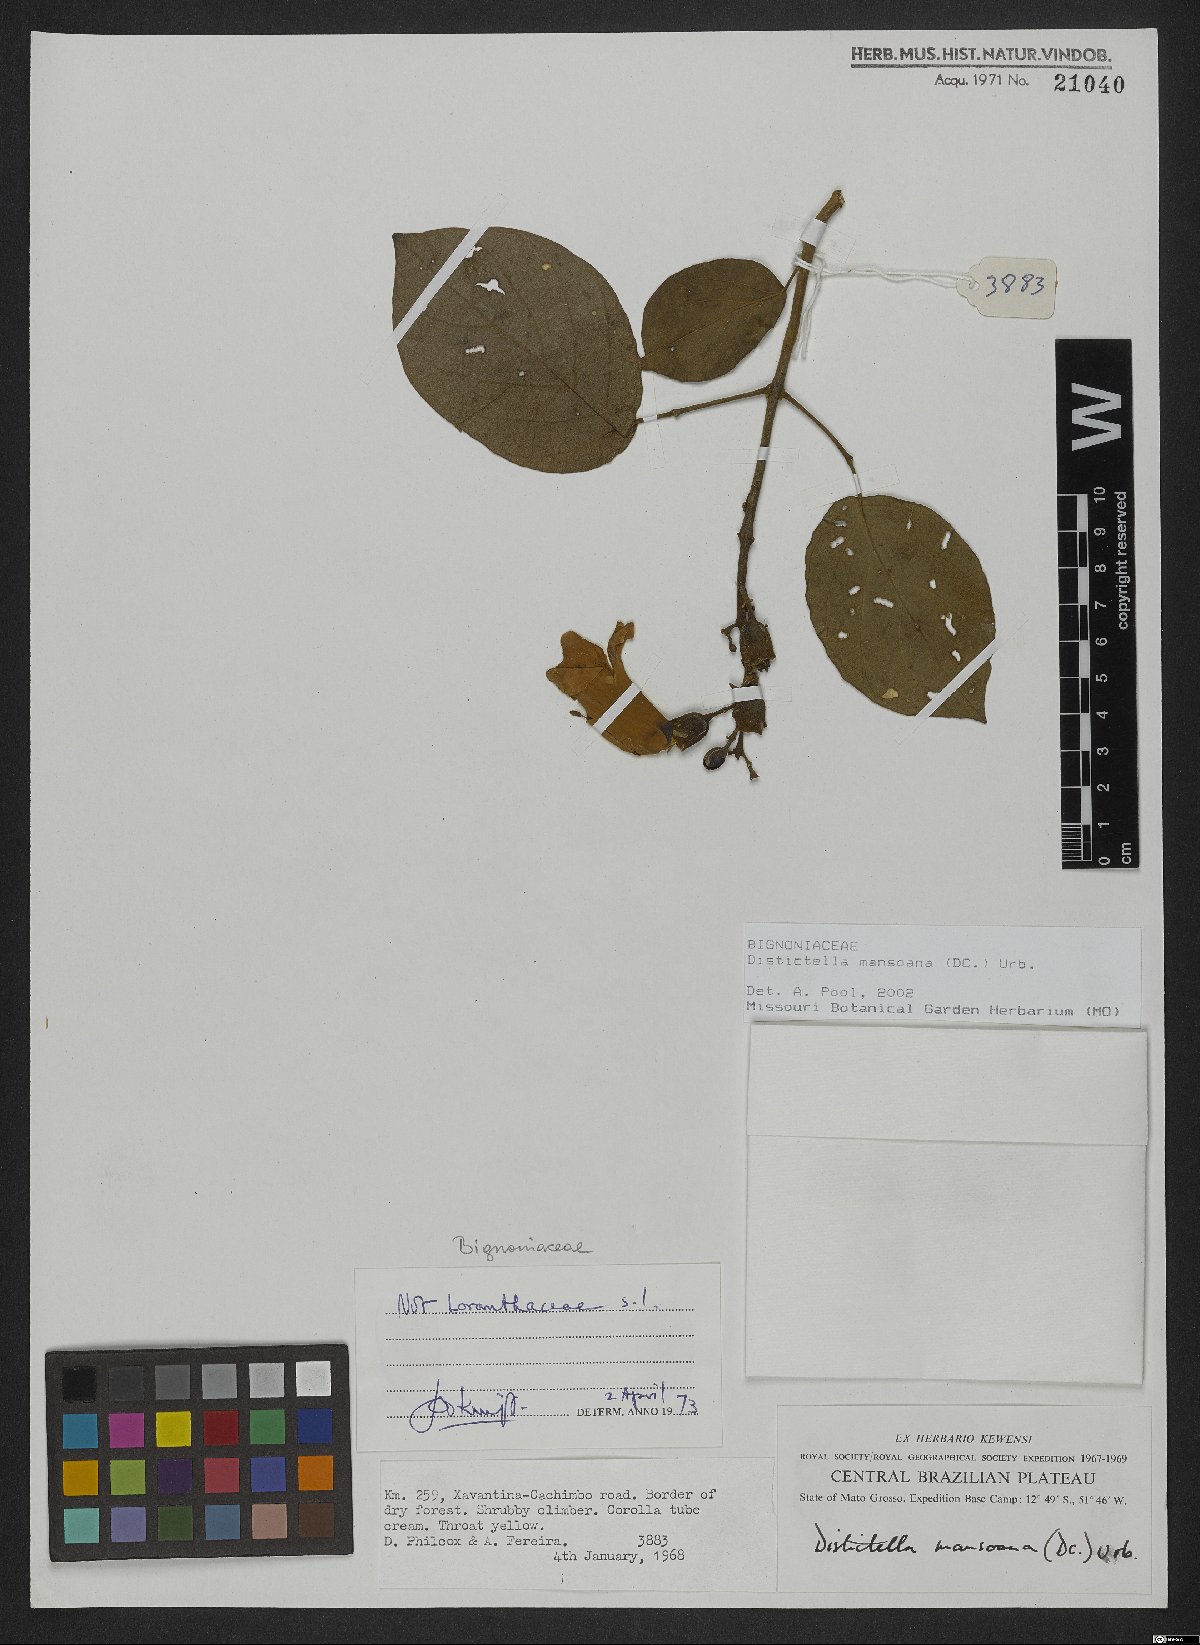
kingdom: Plantae
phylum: Tracheophyta
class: Magnoliopsida
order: Lamiales
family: Bignoniaceae
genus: Amphilophium
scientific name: Amphilophium mansoanum
